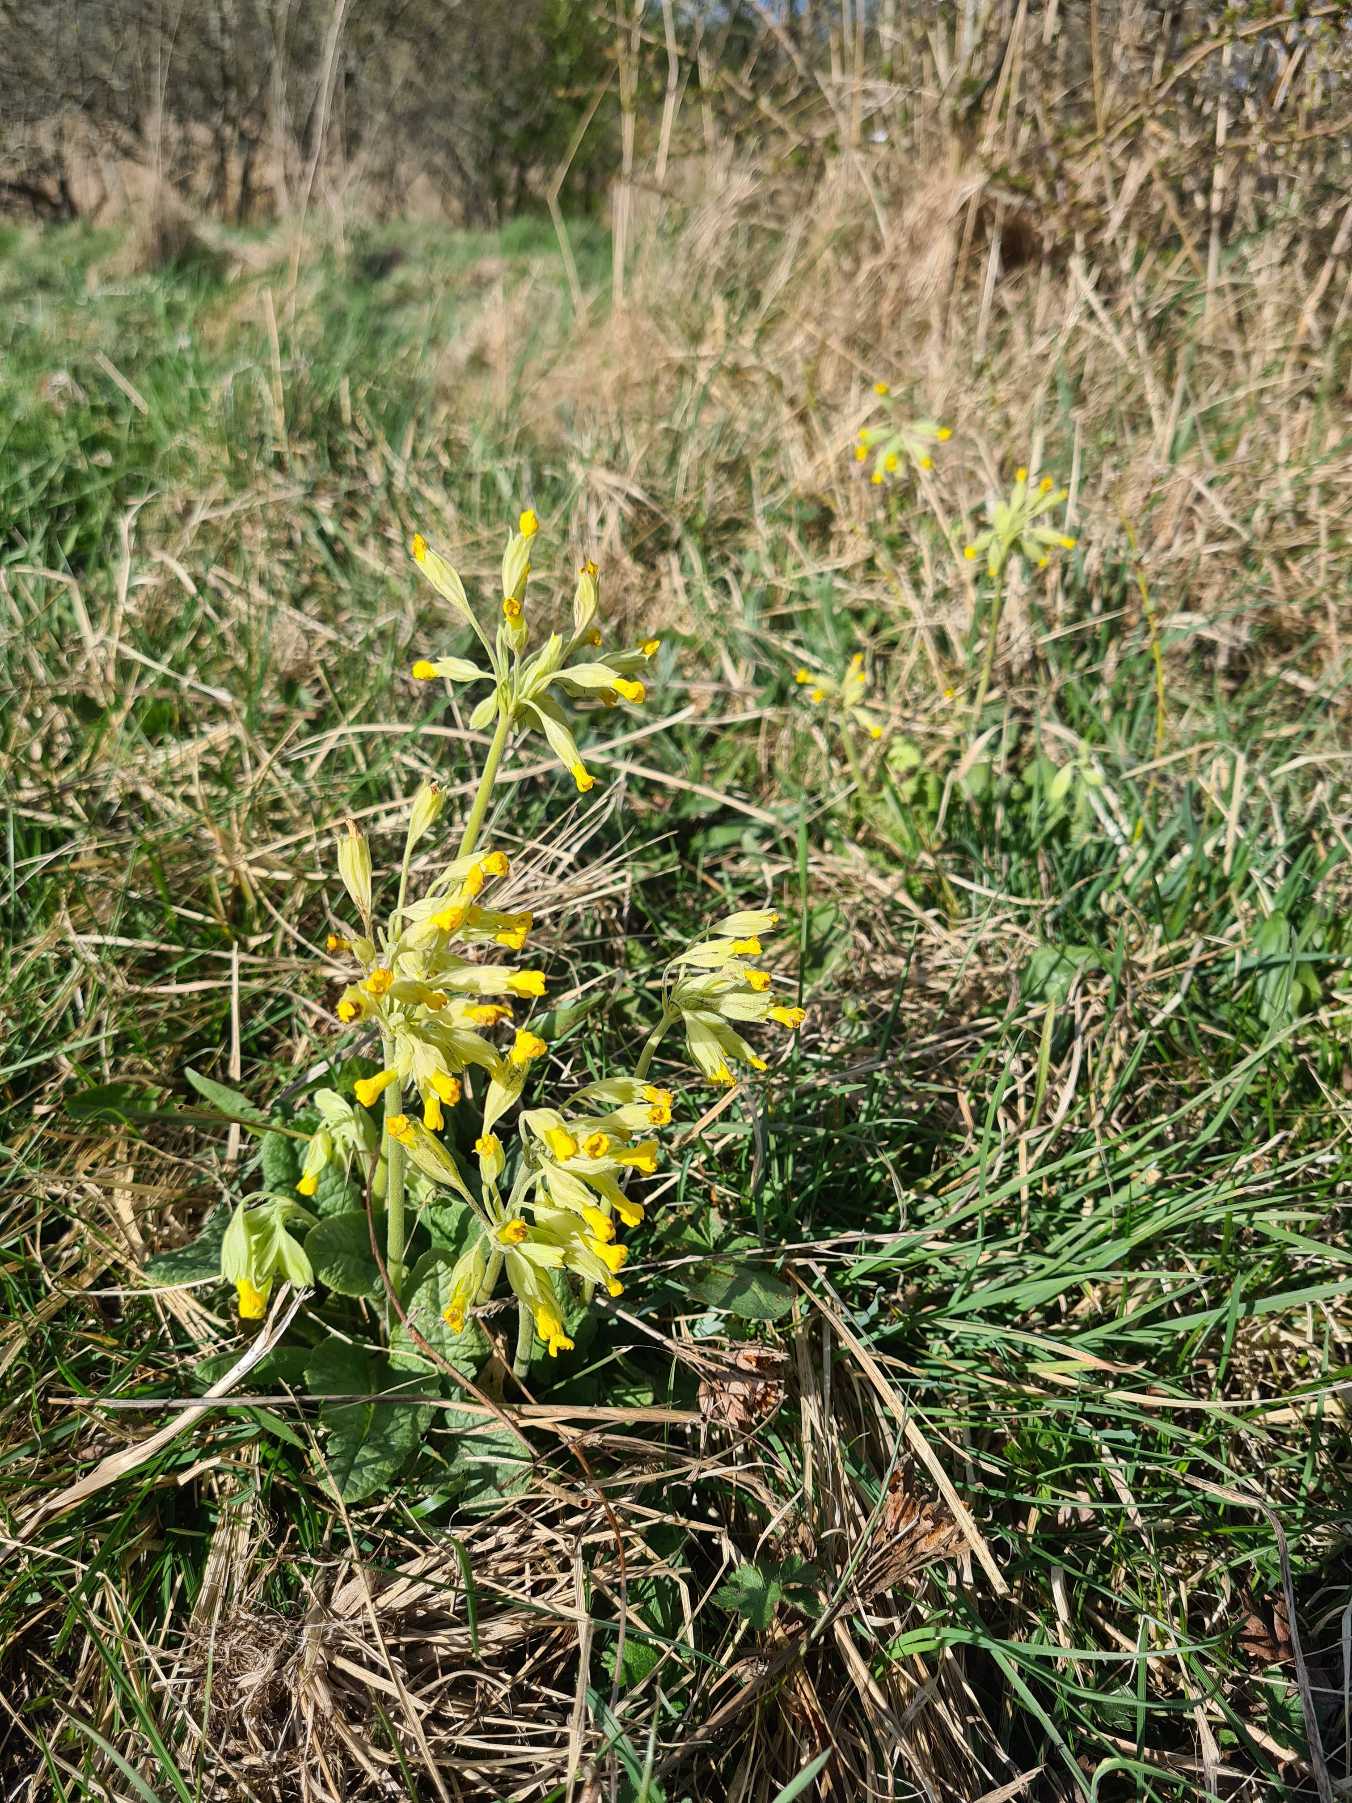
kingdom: Plantae
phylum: Tracheophyta
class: Magnoliopsida
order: Ericales
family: Primulaceae
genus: Primula
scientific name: Primula veris
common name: Hulkravet kodriver
